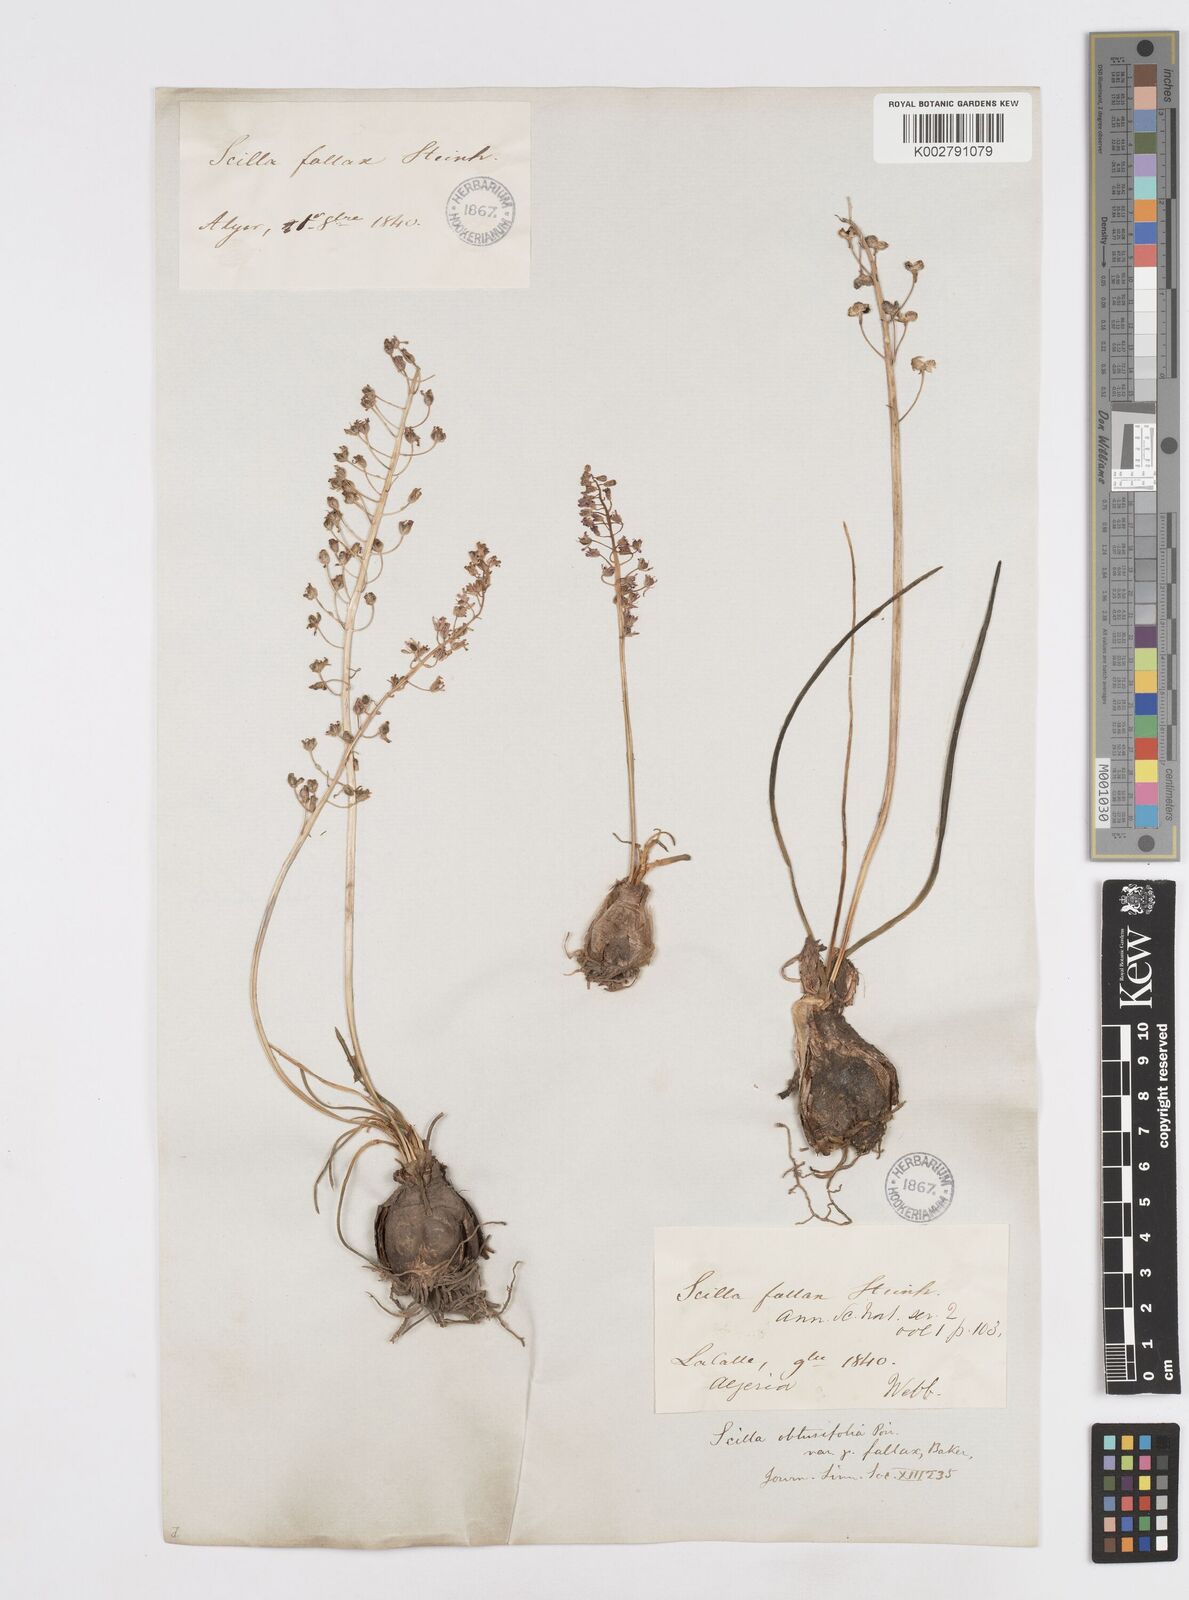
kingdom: Plantae
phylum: Tracheophyta
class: Liliopsida
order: Asparagales
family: Asparagaceae
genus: Prospero
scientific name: Prospero fallax
